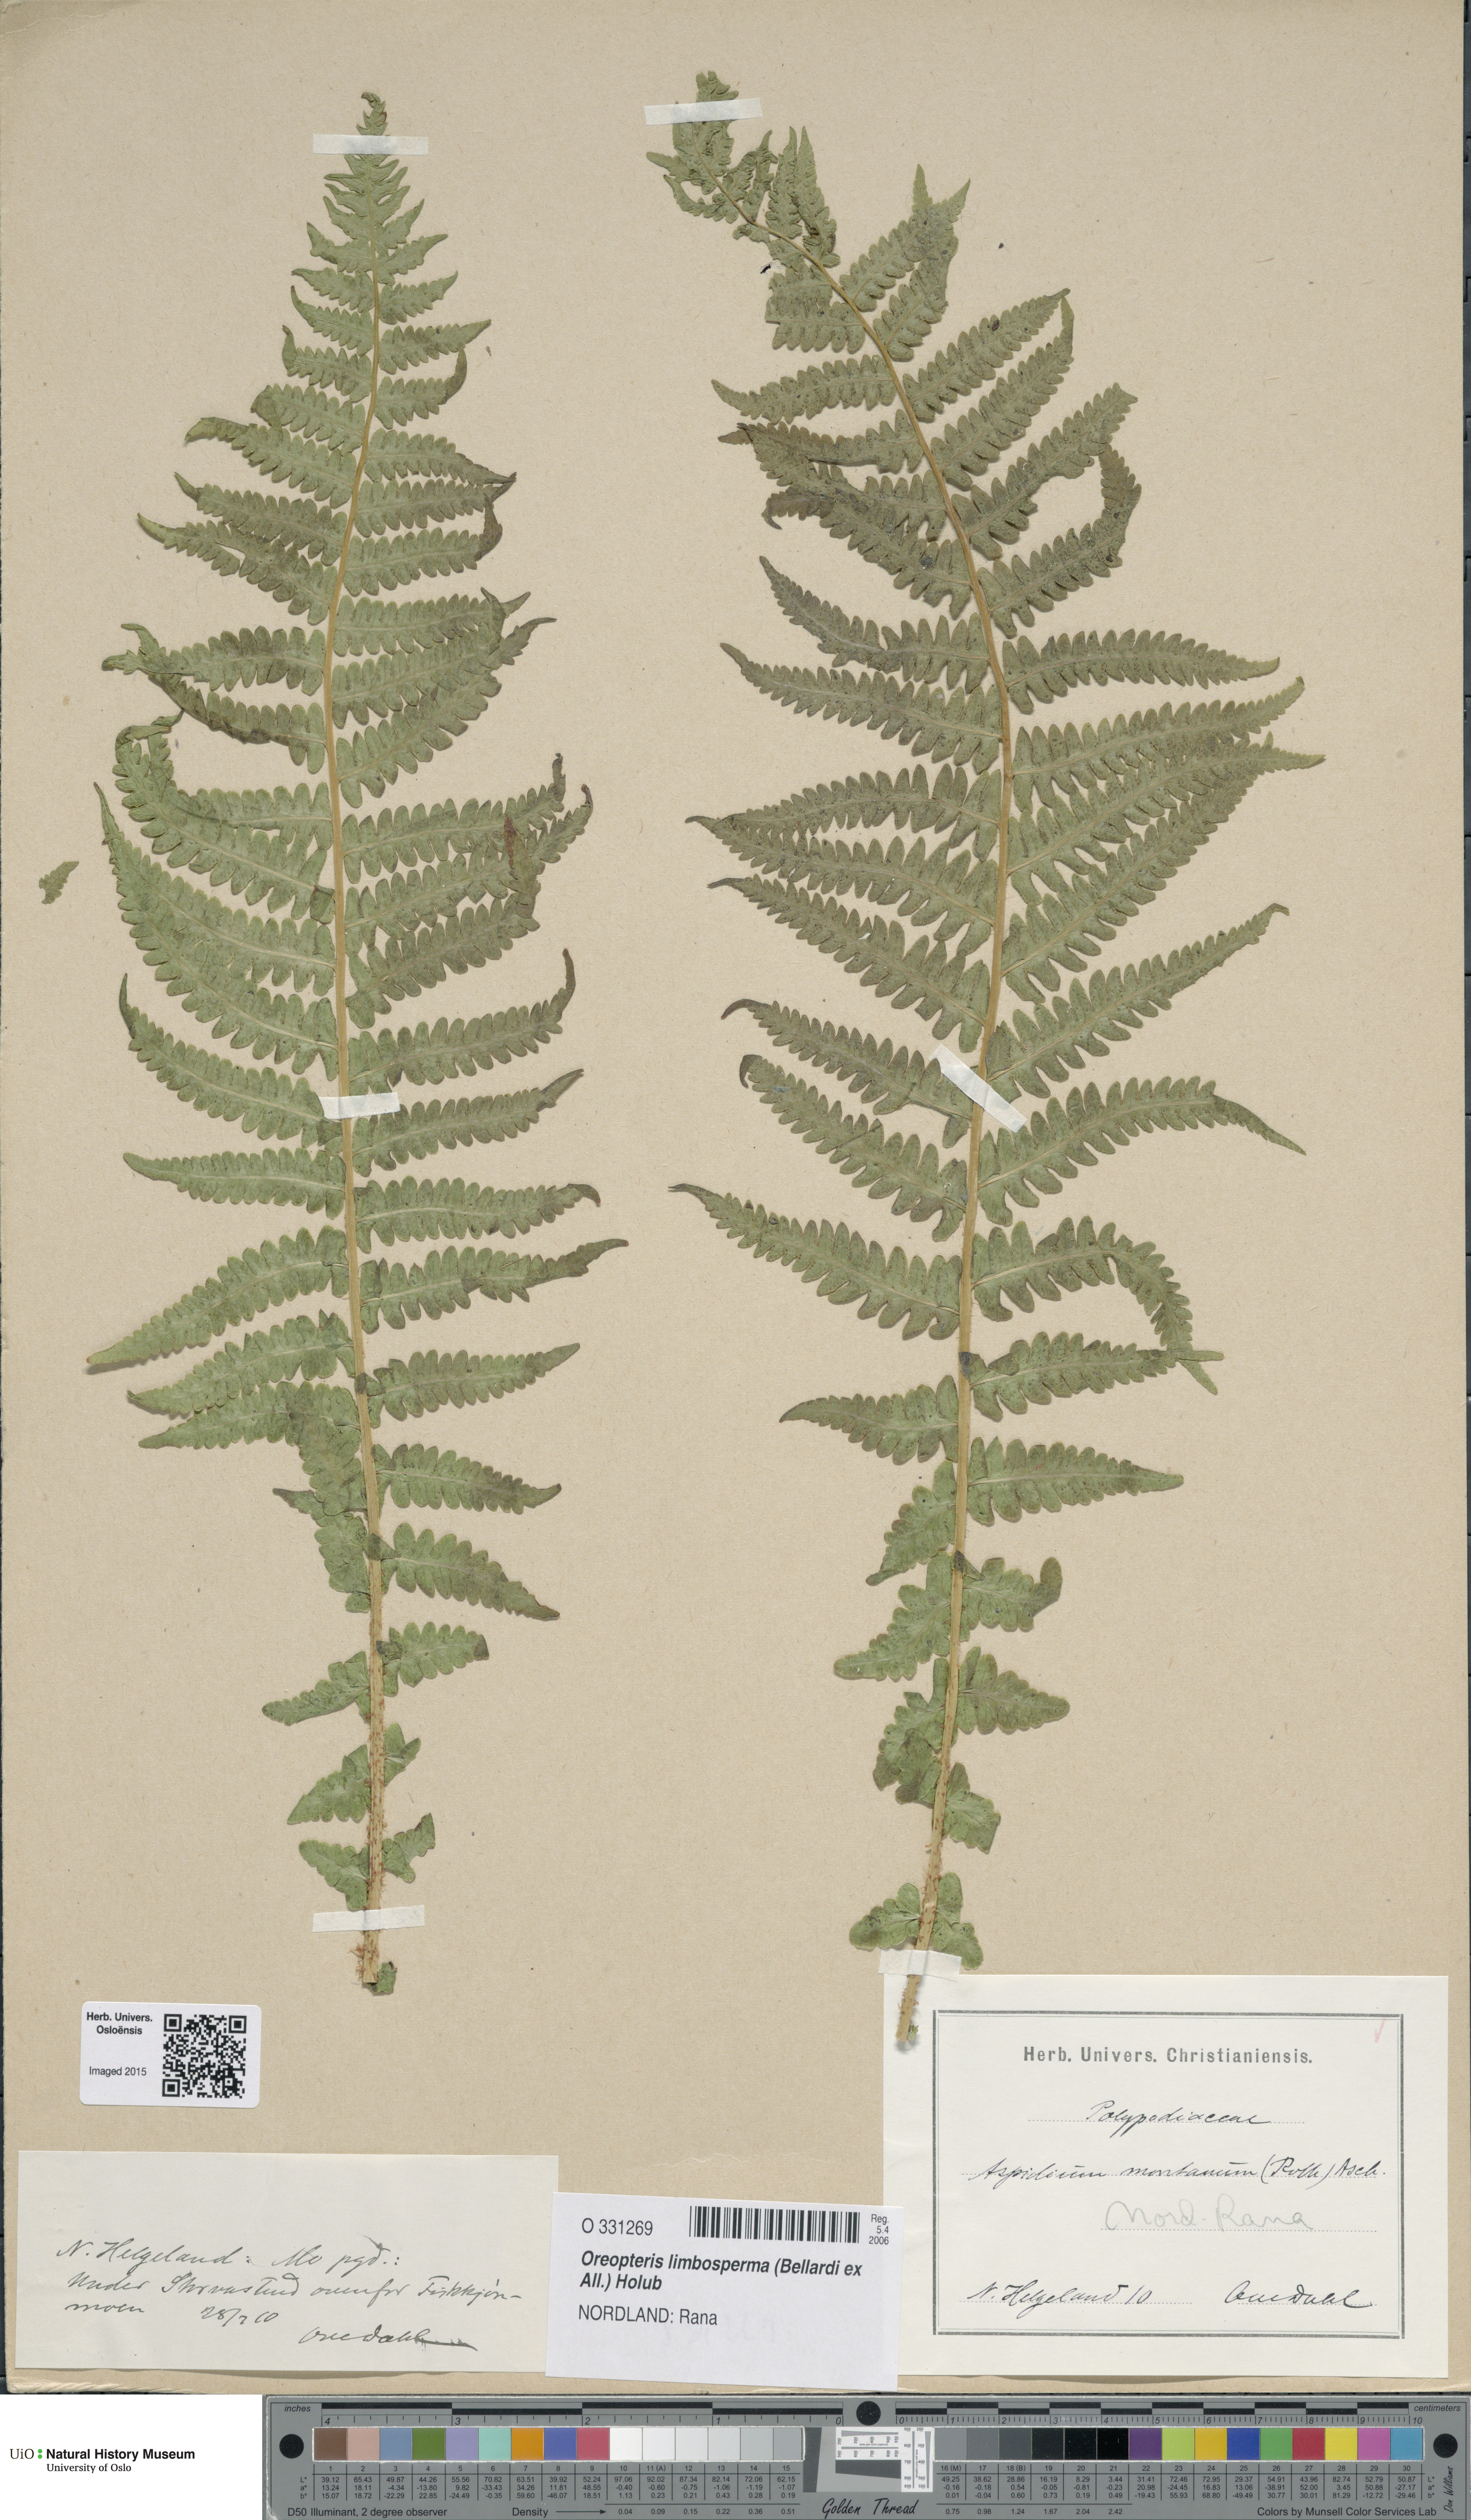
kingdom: Plantae
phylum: Tracheophyta
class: Polypodiopsida
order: Polypodiales
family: Thelypteridaceae
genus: Oreopteris
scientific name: Oreopteris limbosperma
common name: Lemon-scented fern
